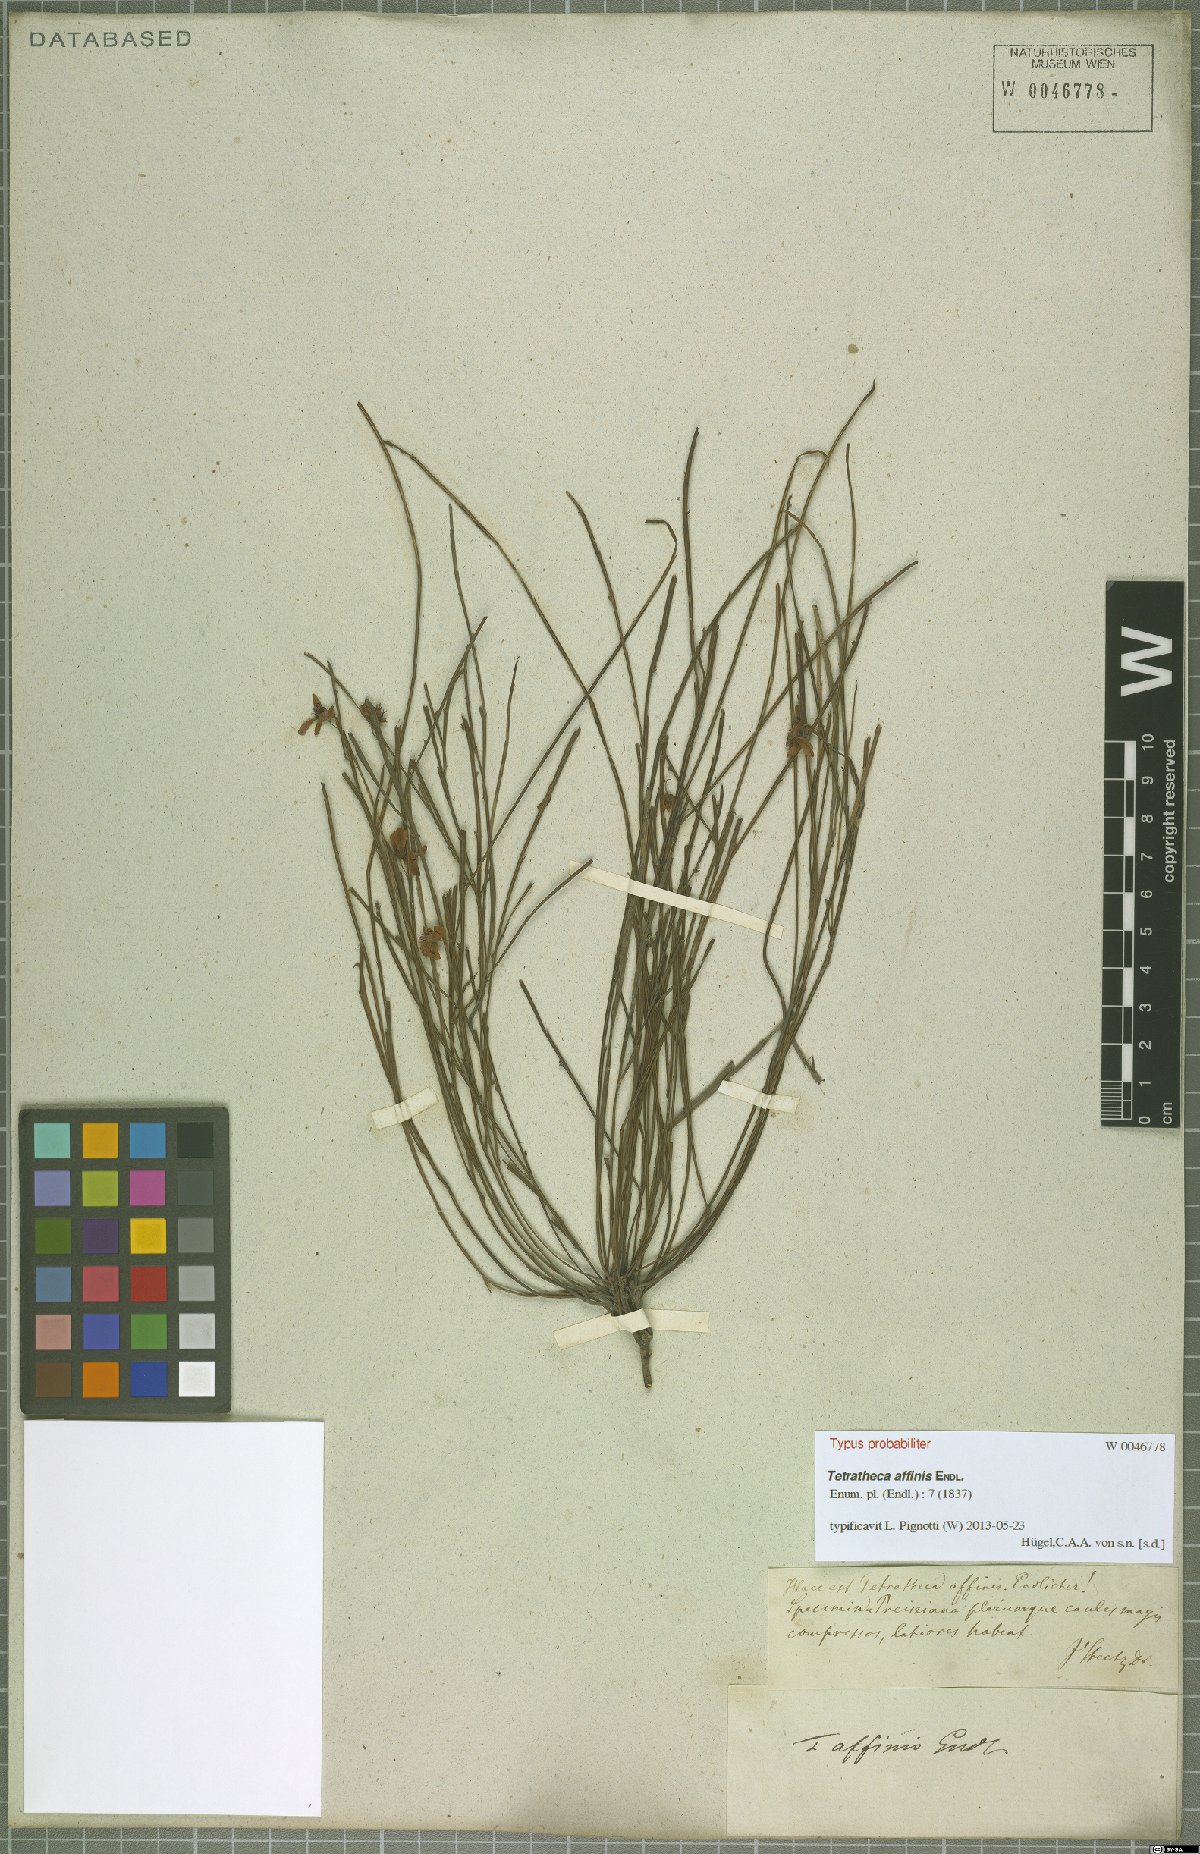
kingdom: Plantae
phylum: Tracheophyta
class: Magnoliopsida
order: Oxalidales
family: Elaeocarpaceae
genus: Tetratheca
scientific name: Tetratheca affinis
